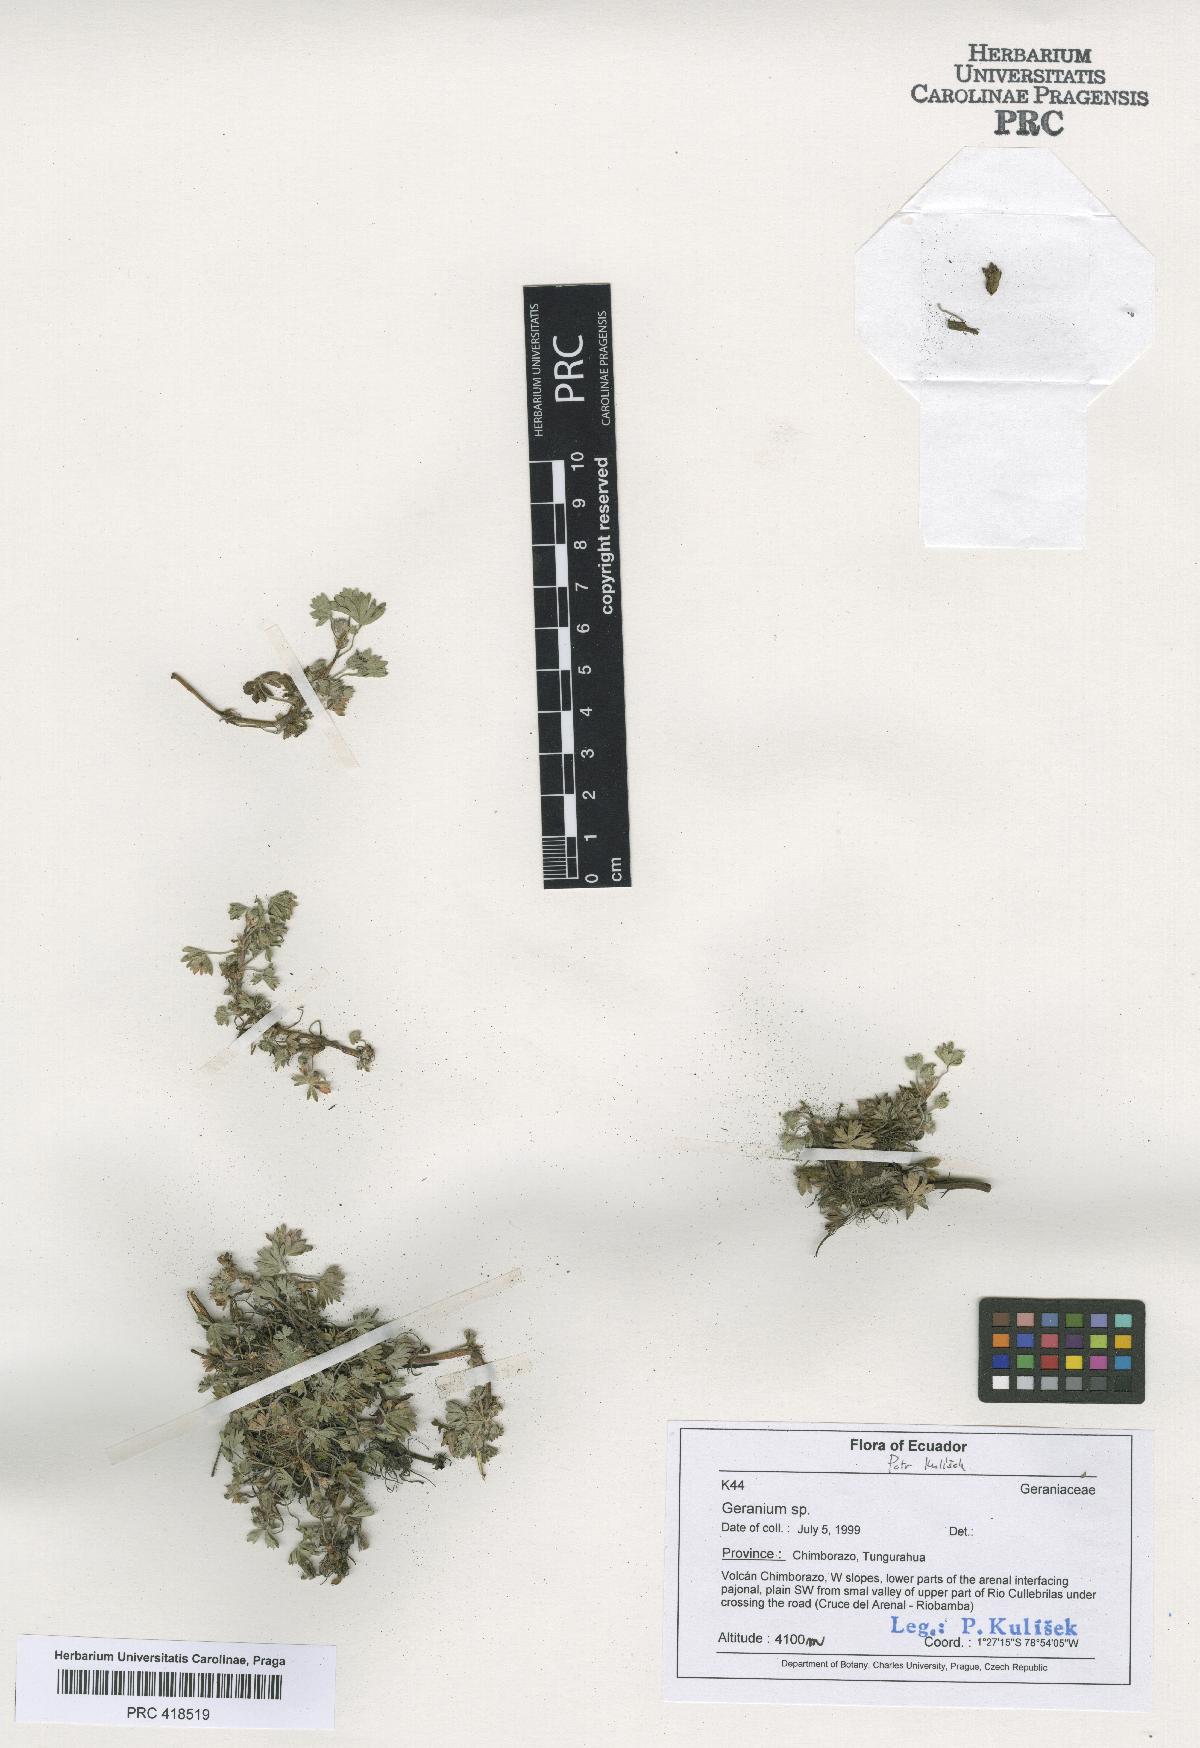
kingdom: Plantae
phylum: Tracheophyta
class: Magnoliopsida
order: Geraniales
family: Geraniaceae
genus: Geranium
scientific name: Geranium diffusum
